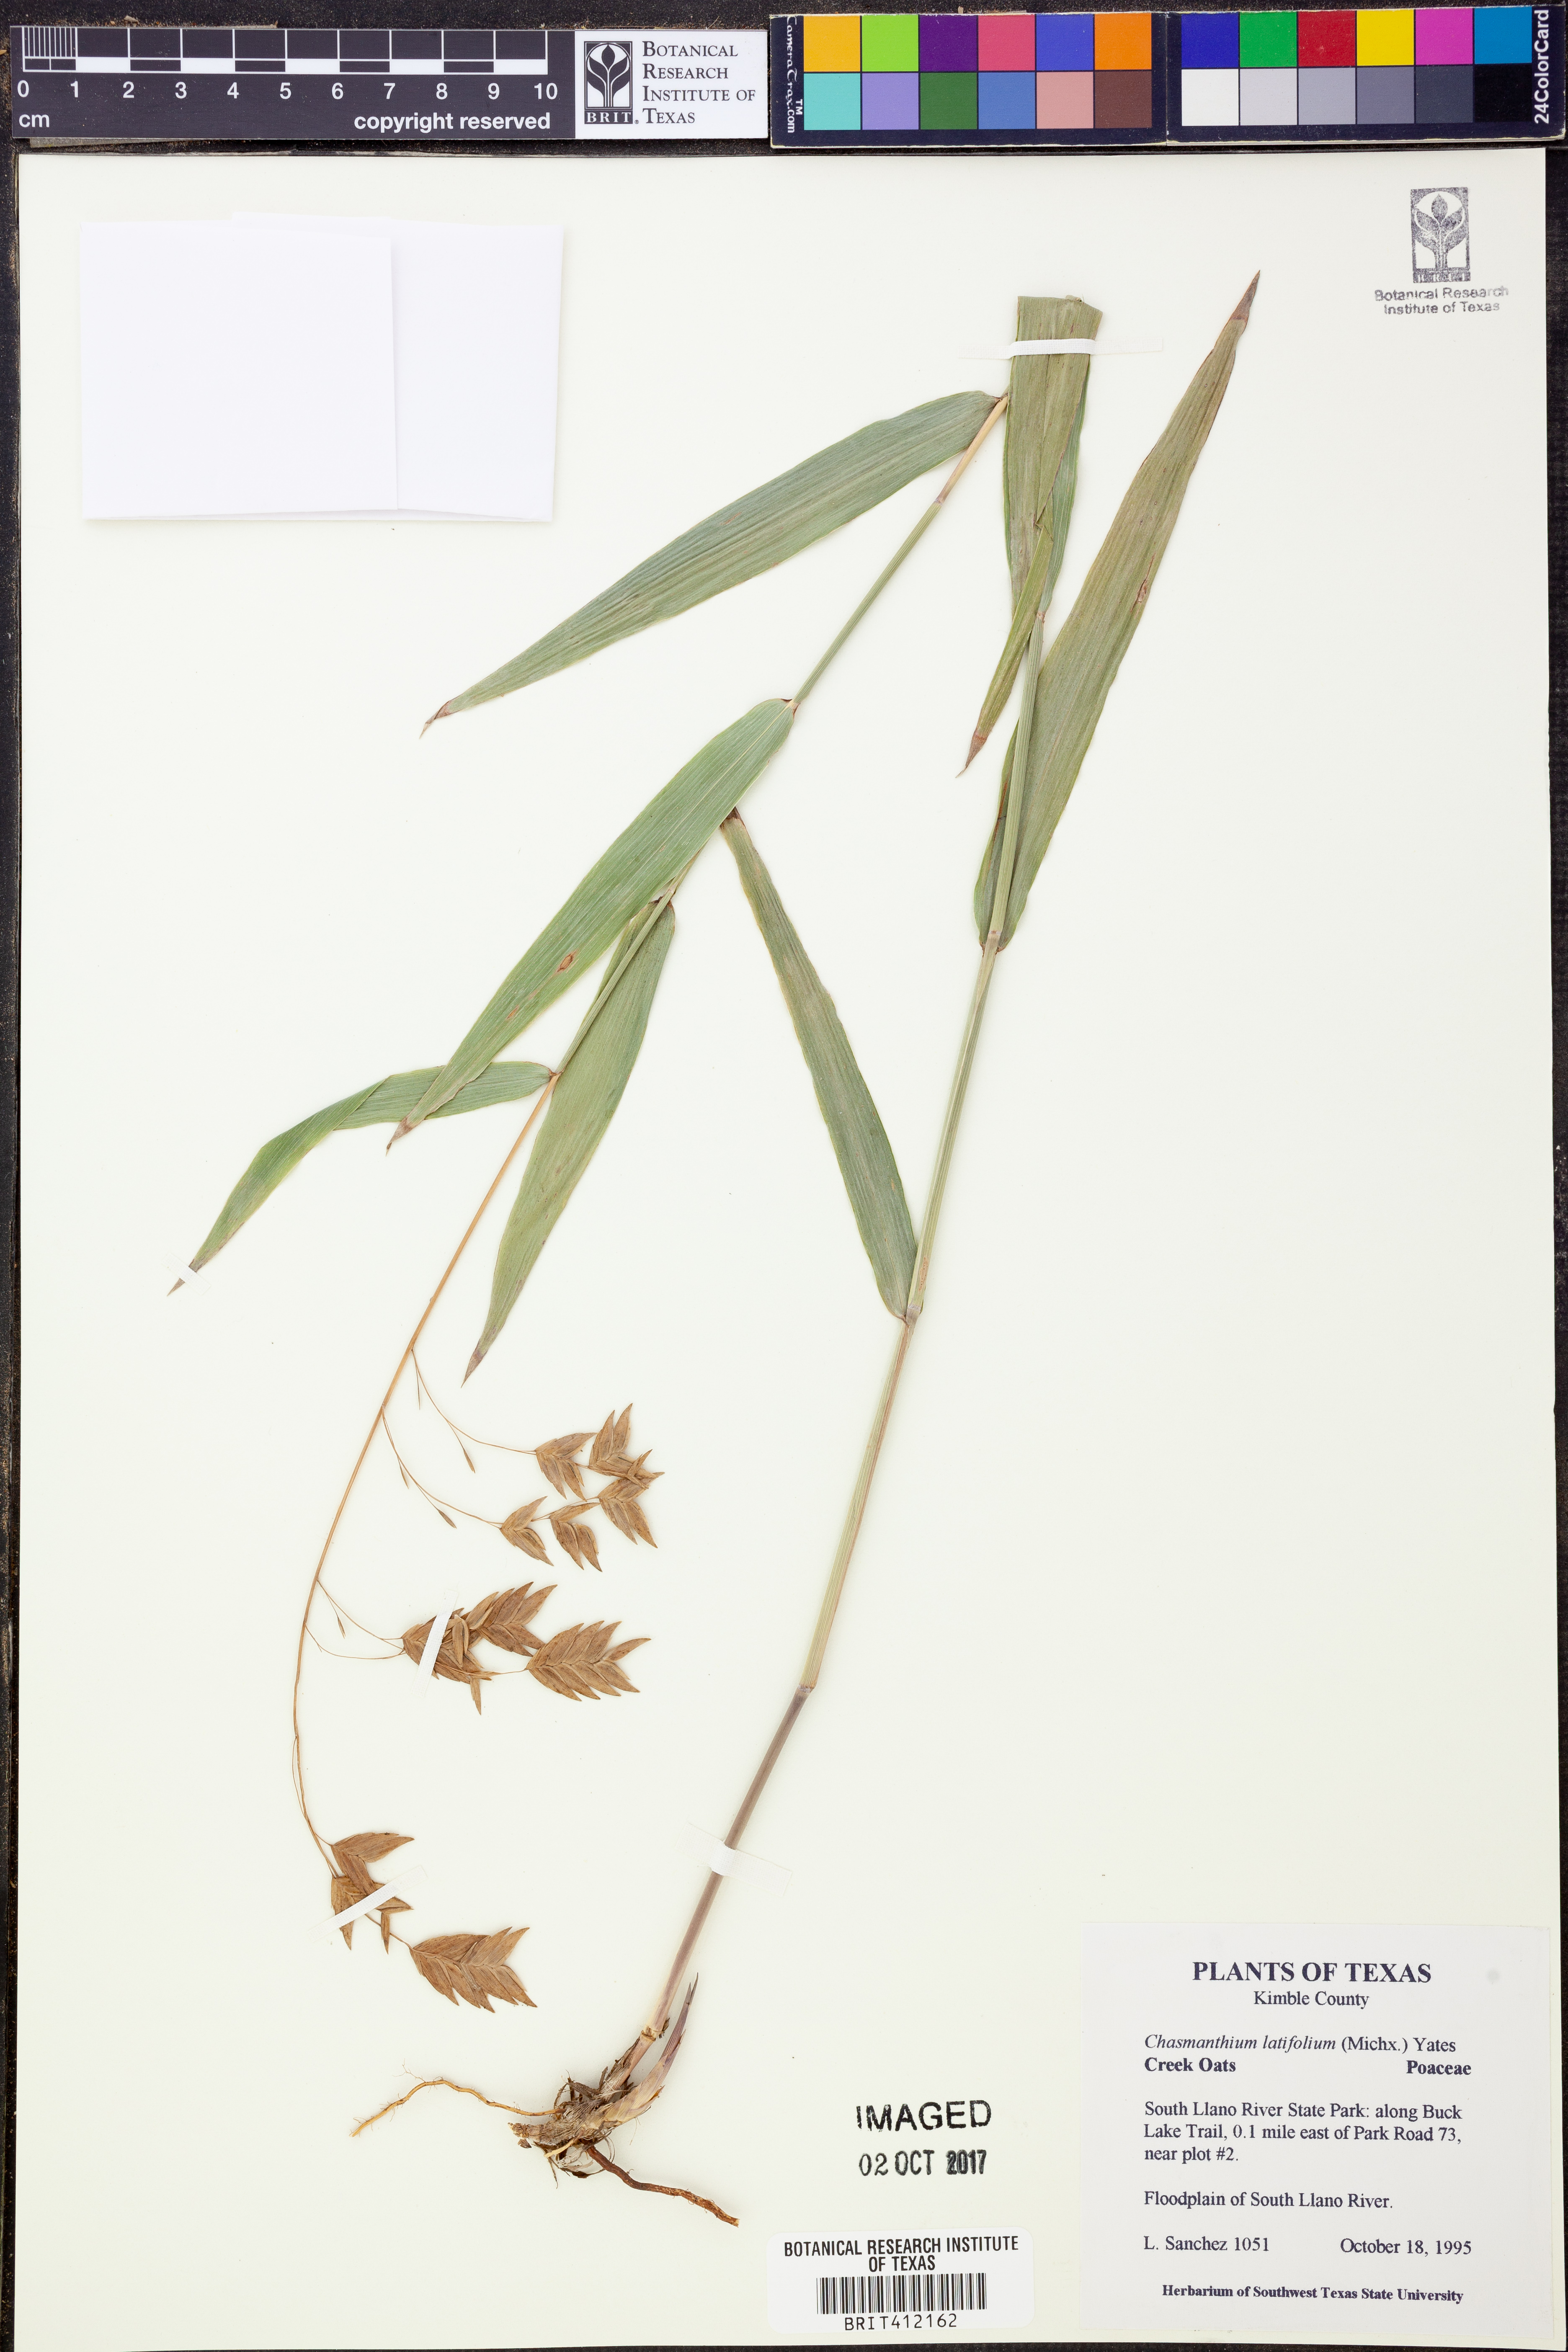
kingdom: Plantae
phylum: Tracheophyta
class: Liliopsida
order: Poales
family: Poaceae
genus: Chasmanthium
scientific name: Chasmanthium latifolium
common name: Broad-leaved chasmanthium
